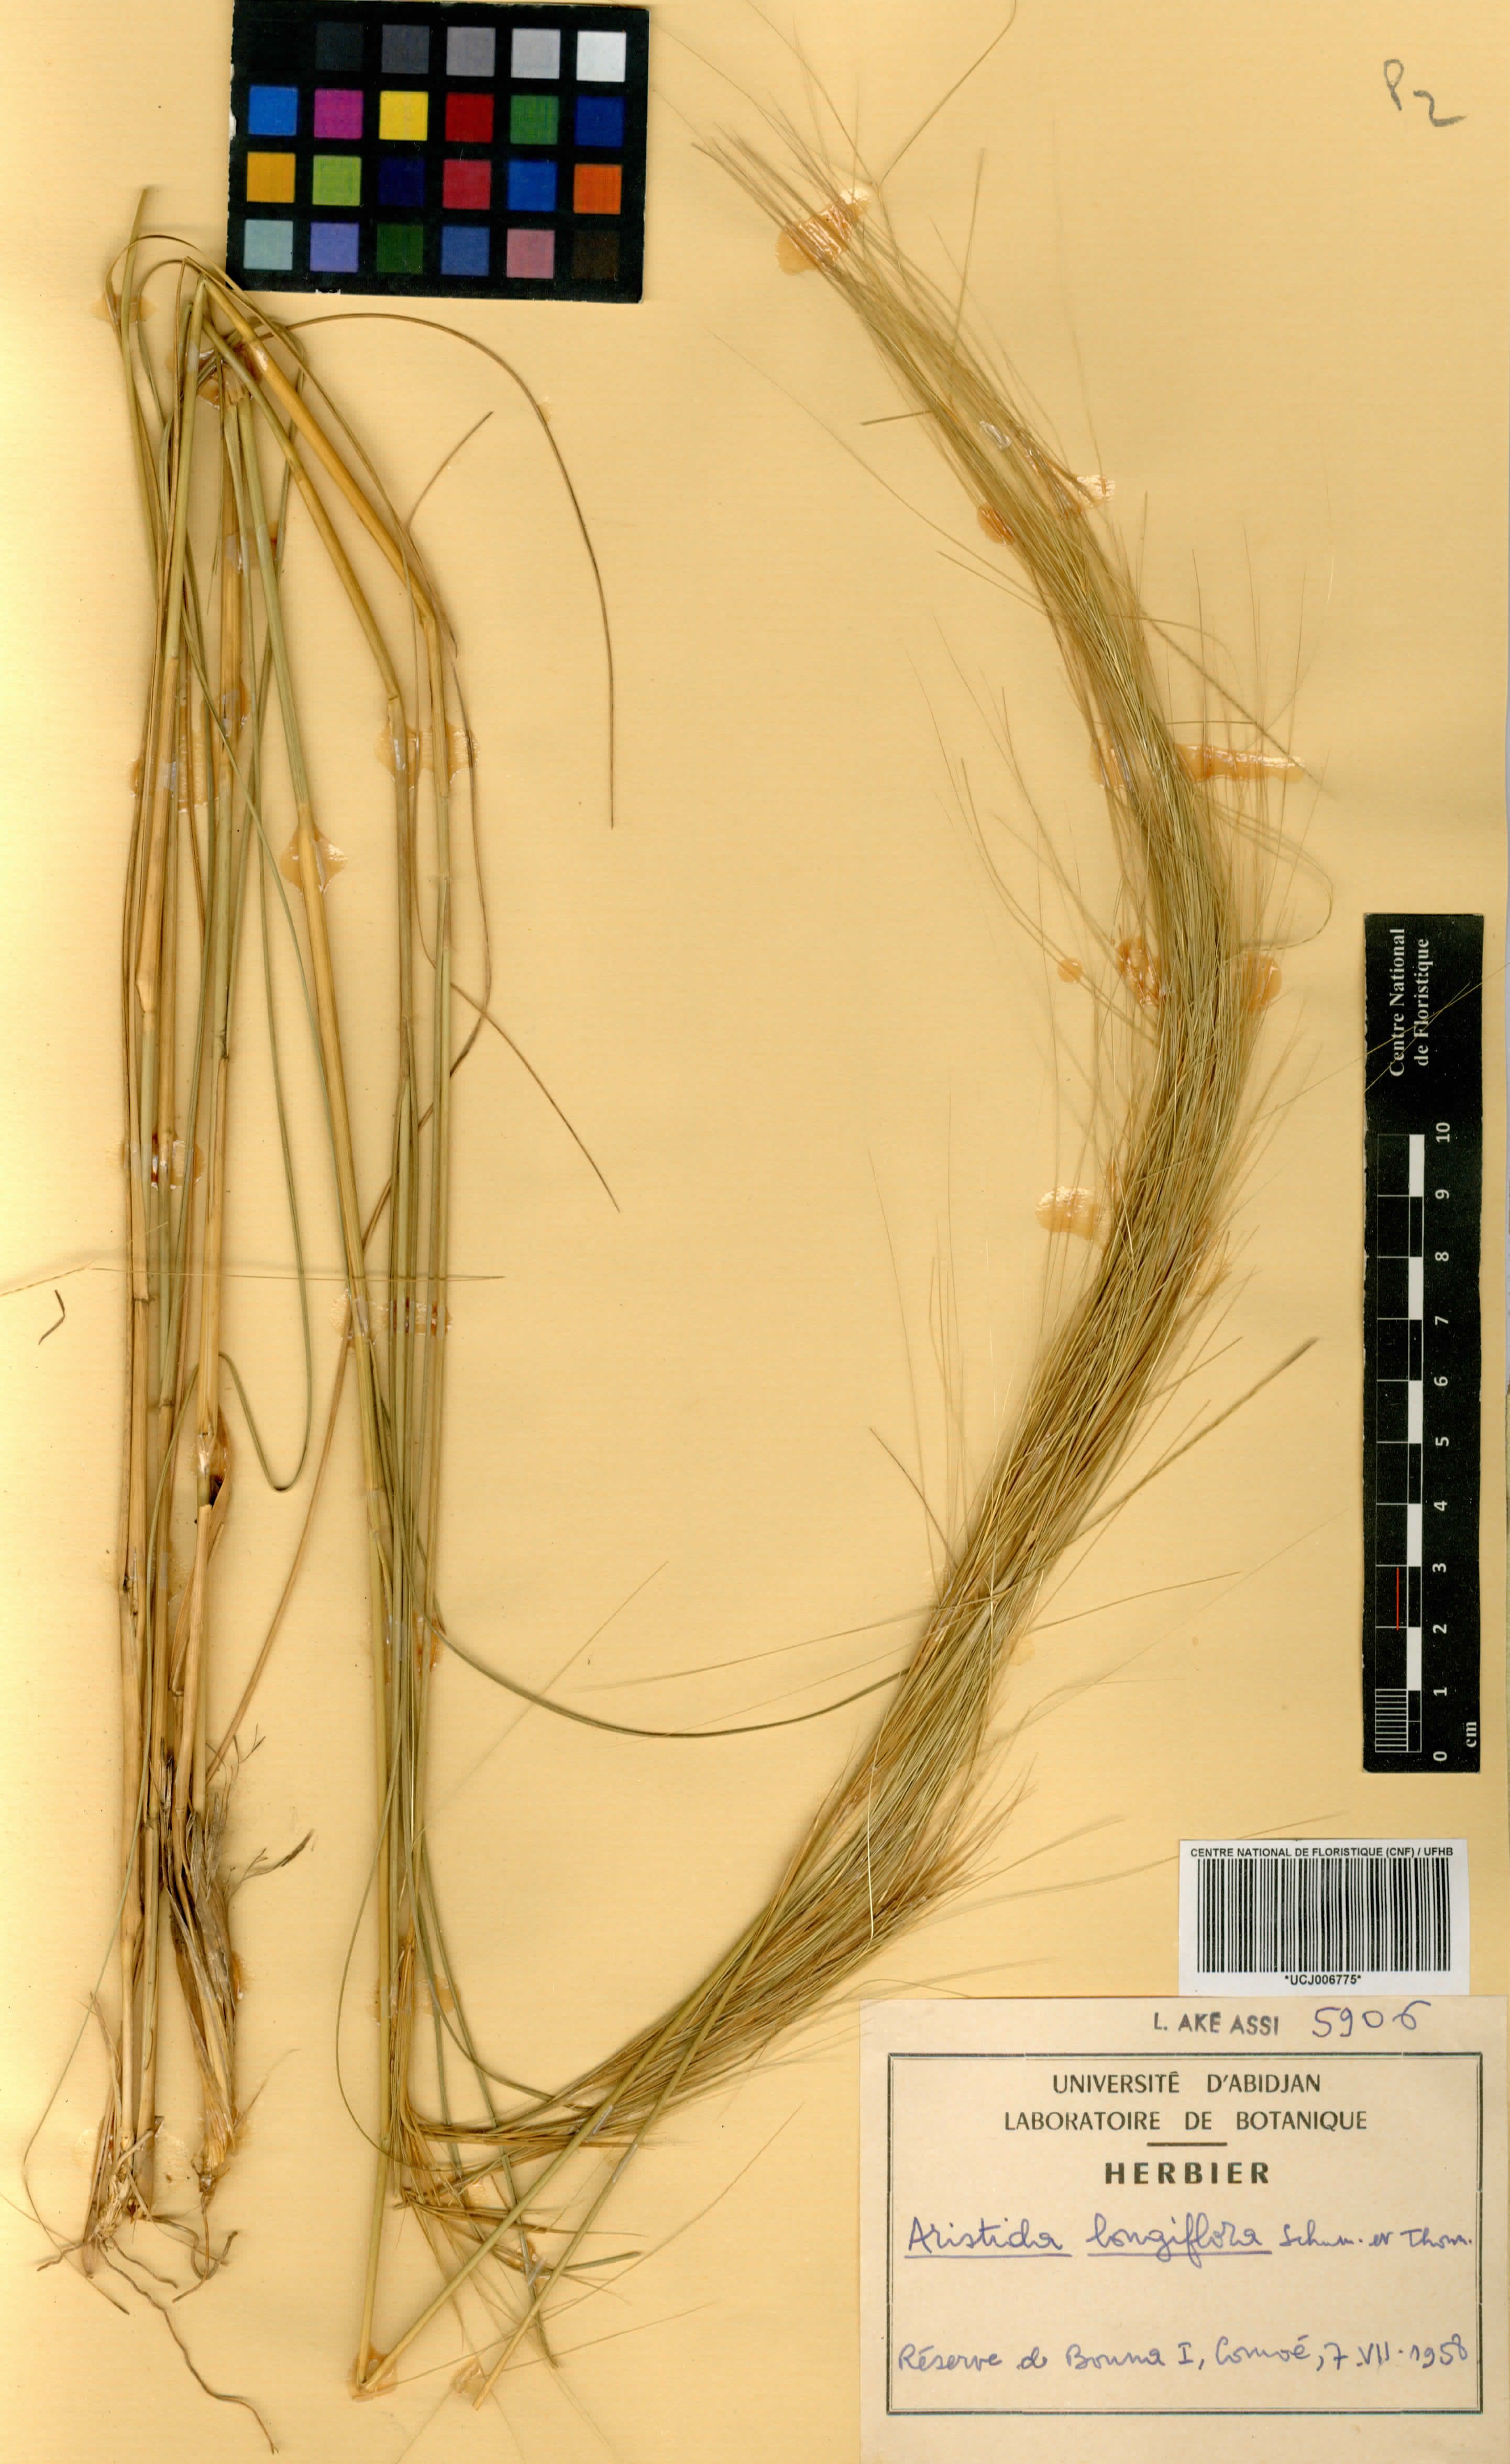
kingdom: Plantae
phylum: Tracheophyta
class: Liliopsida
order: Poales
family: Poaceae
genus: Aristida
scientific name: Aristida sieberiana
